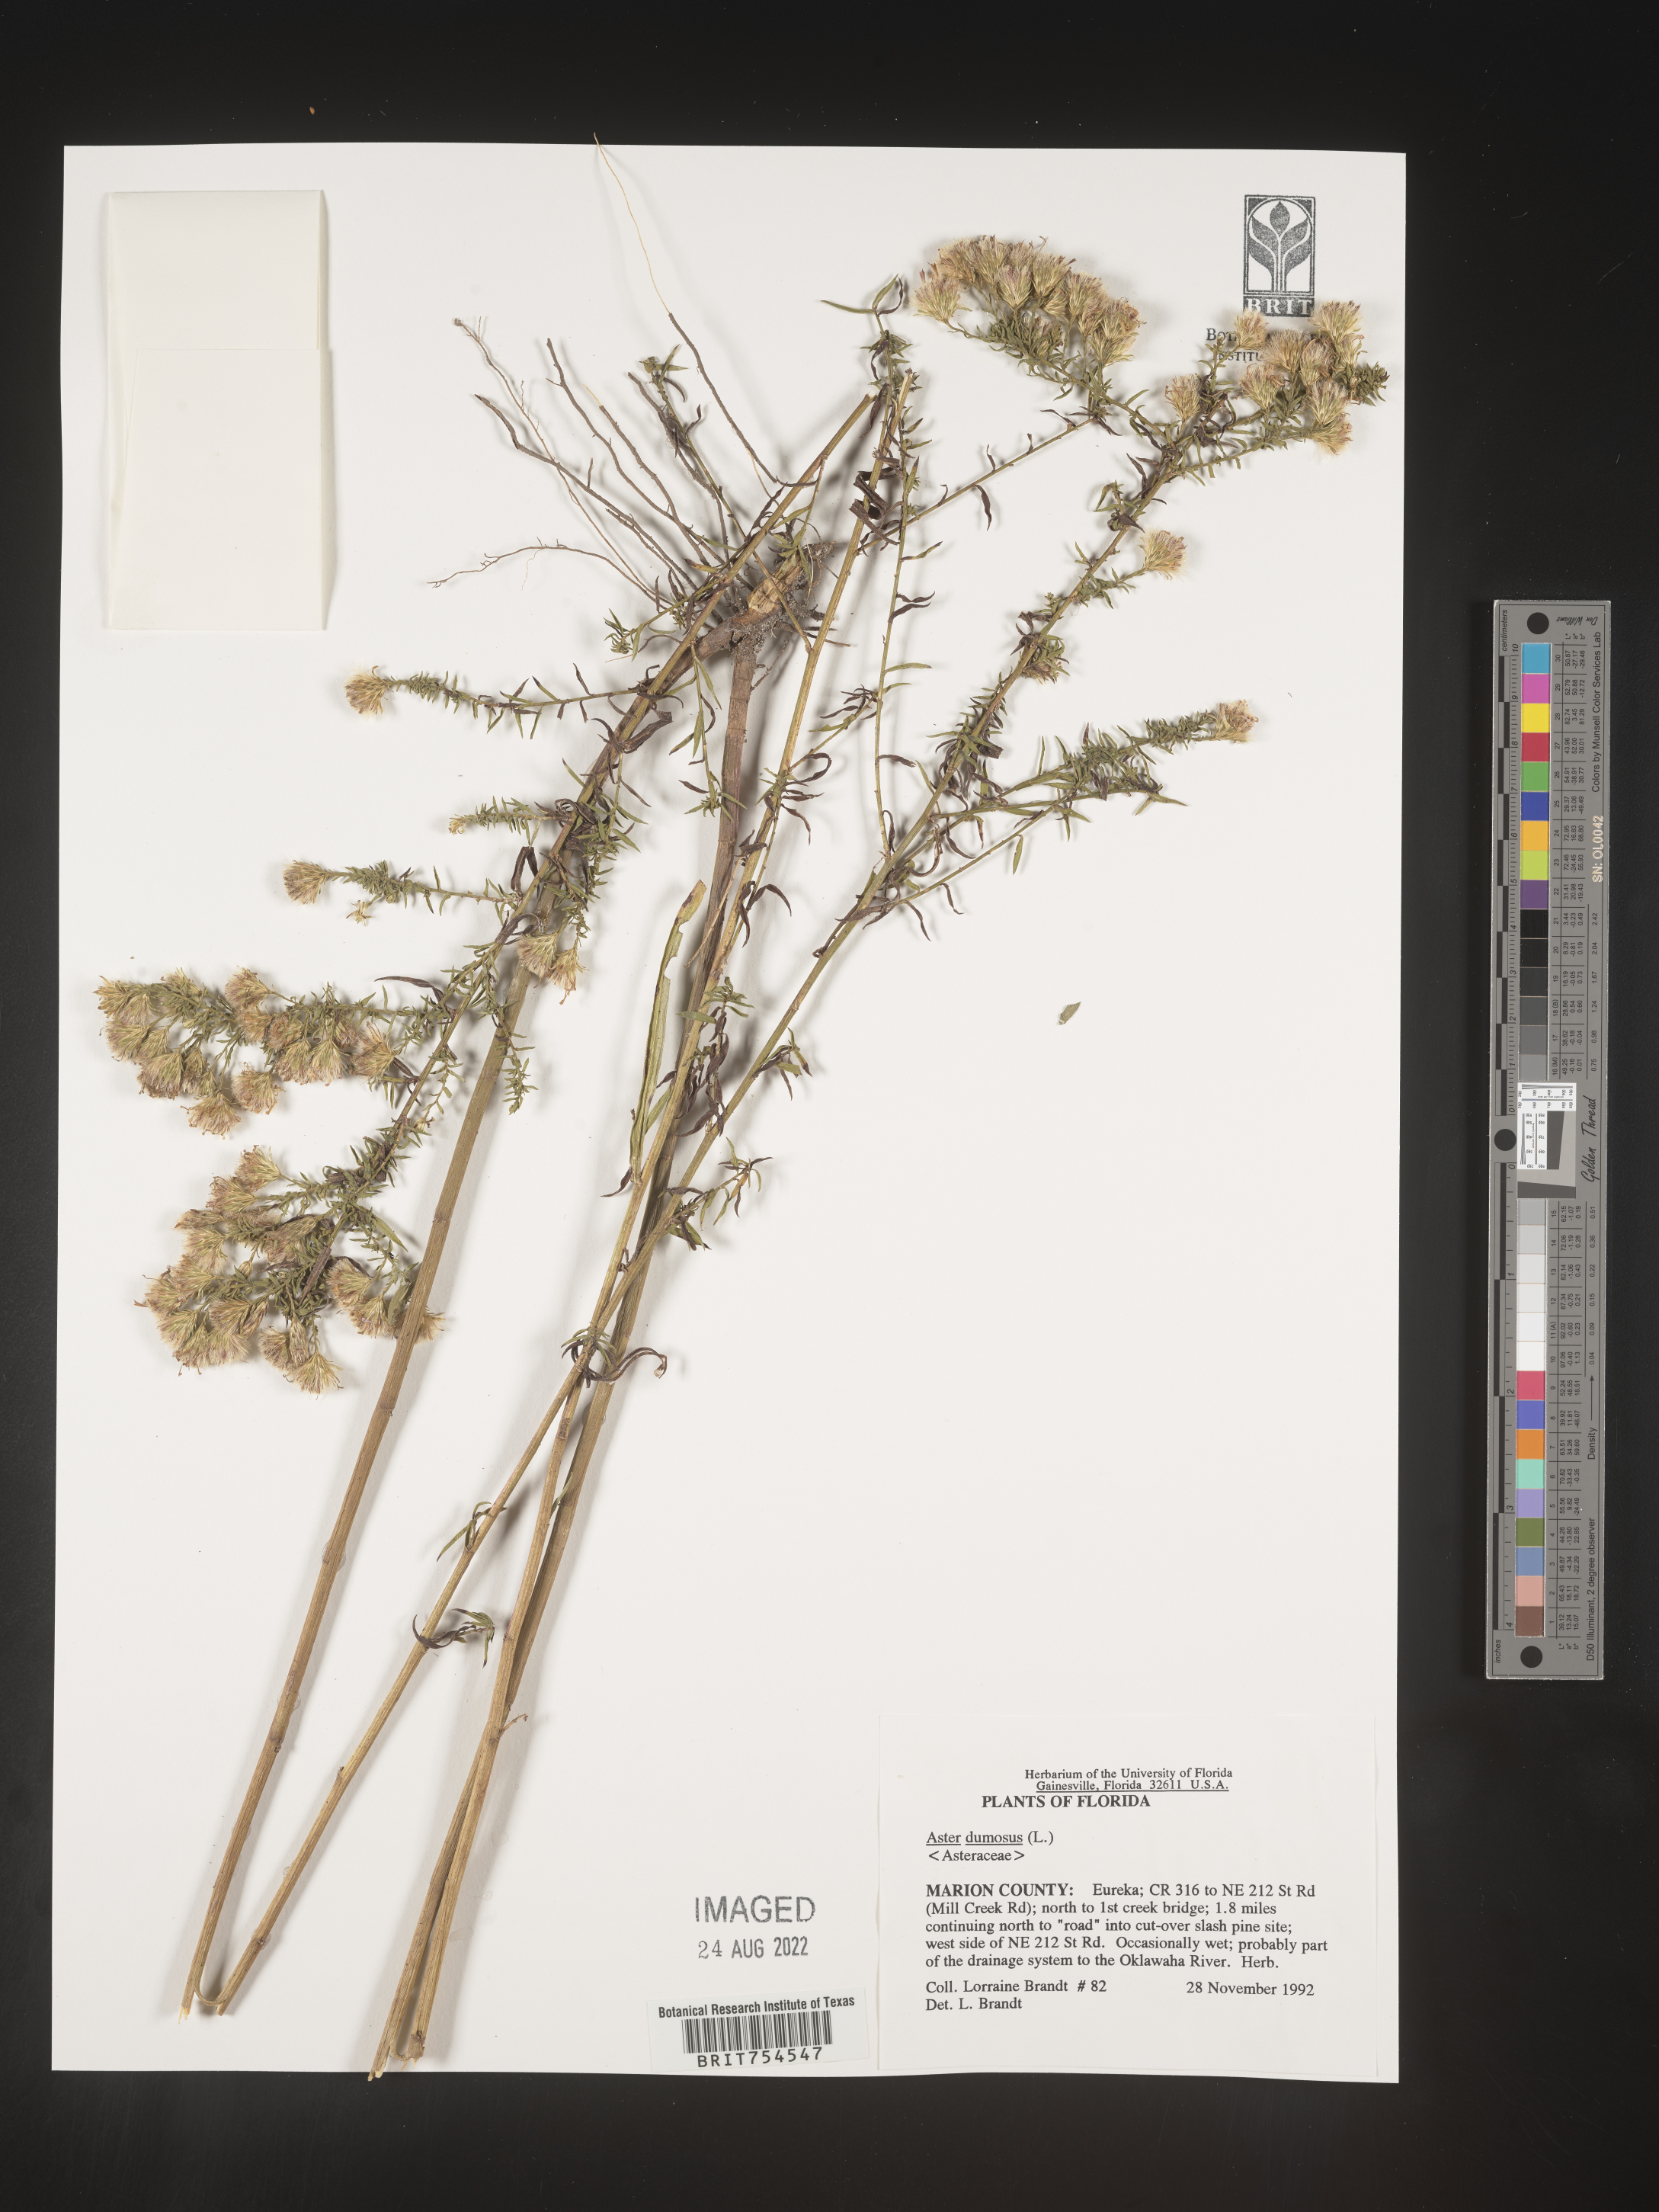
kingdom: Plantae
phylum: Tracheophyta
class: Magnoliopsida
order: Asterales
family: Asteraceae
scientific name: Asteraceae
